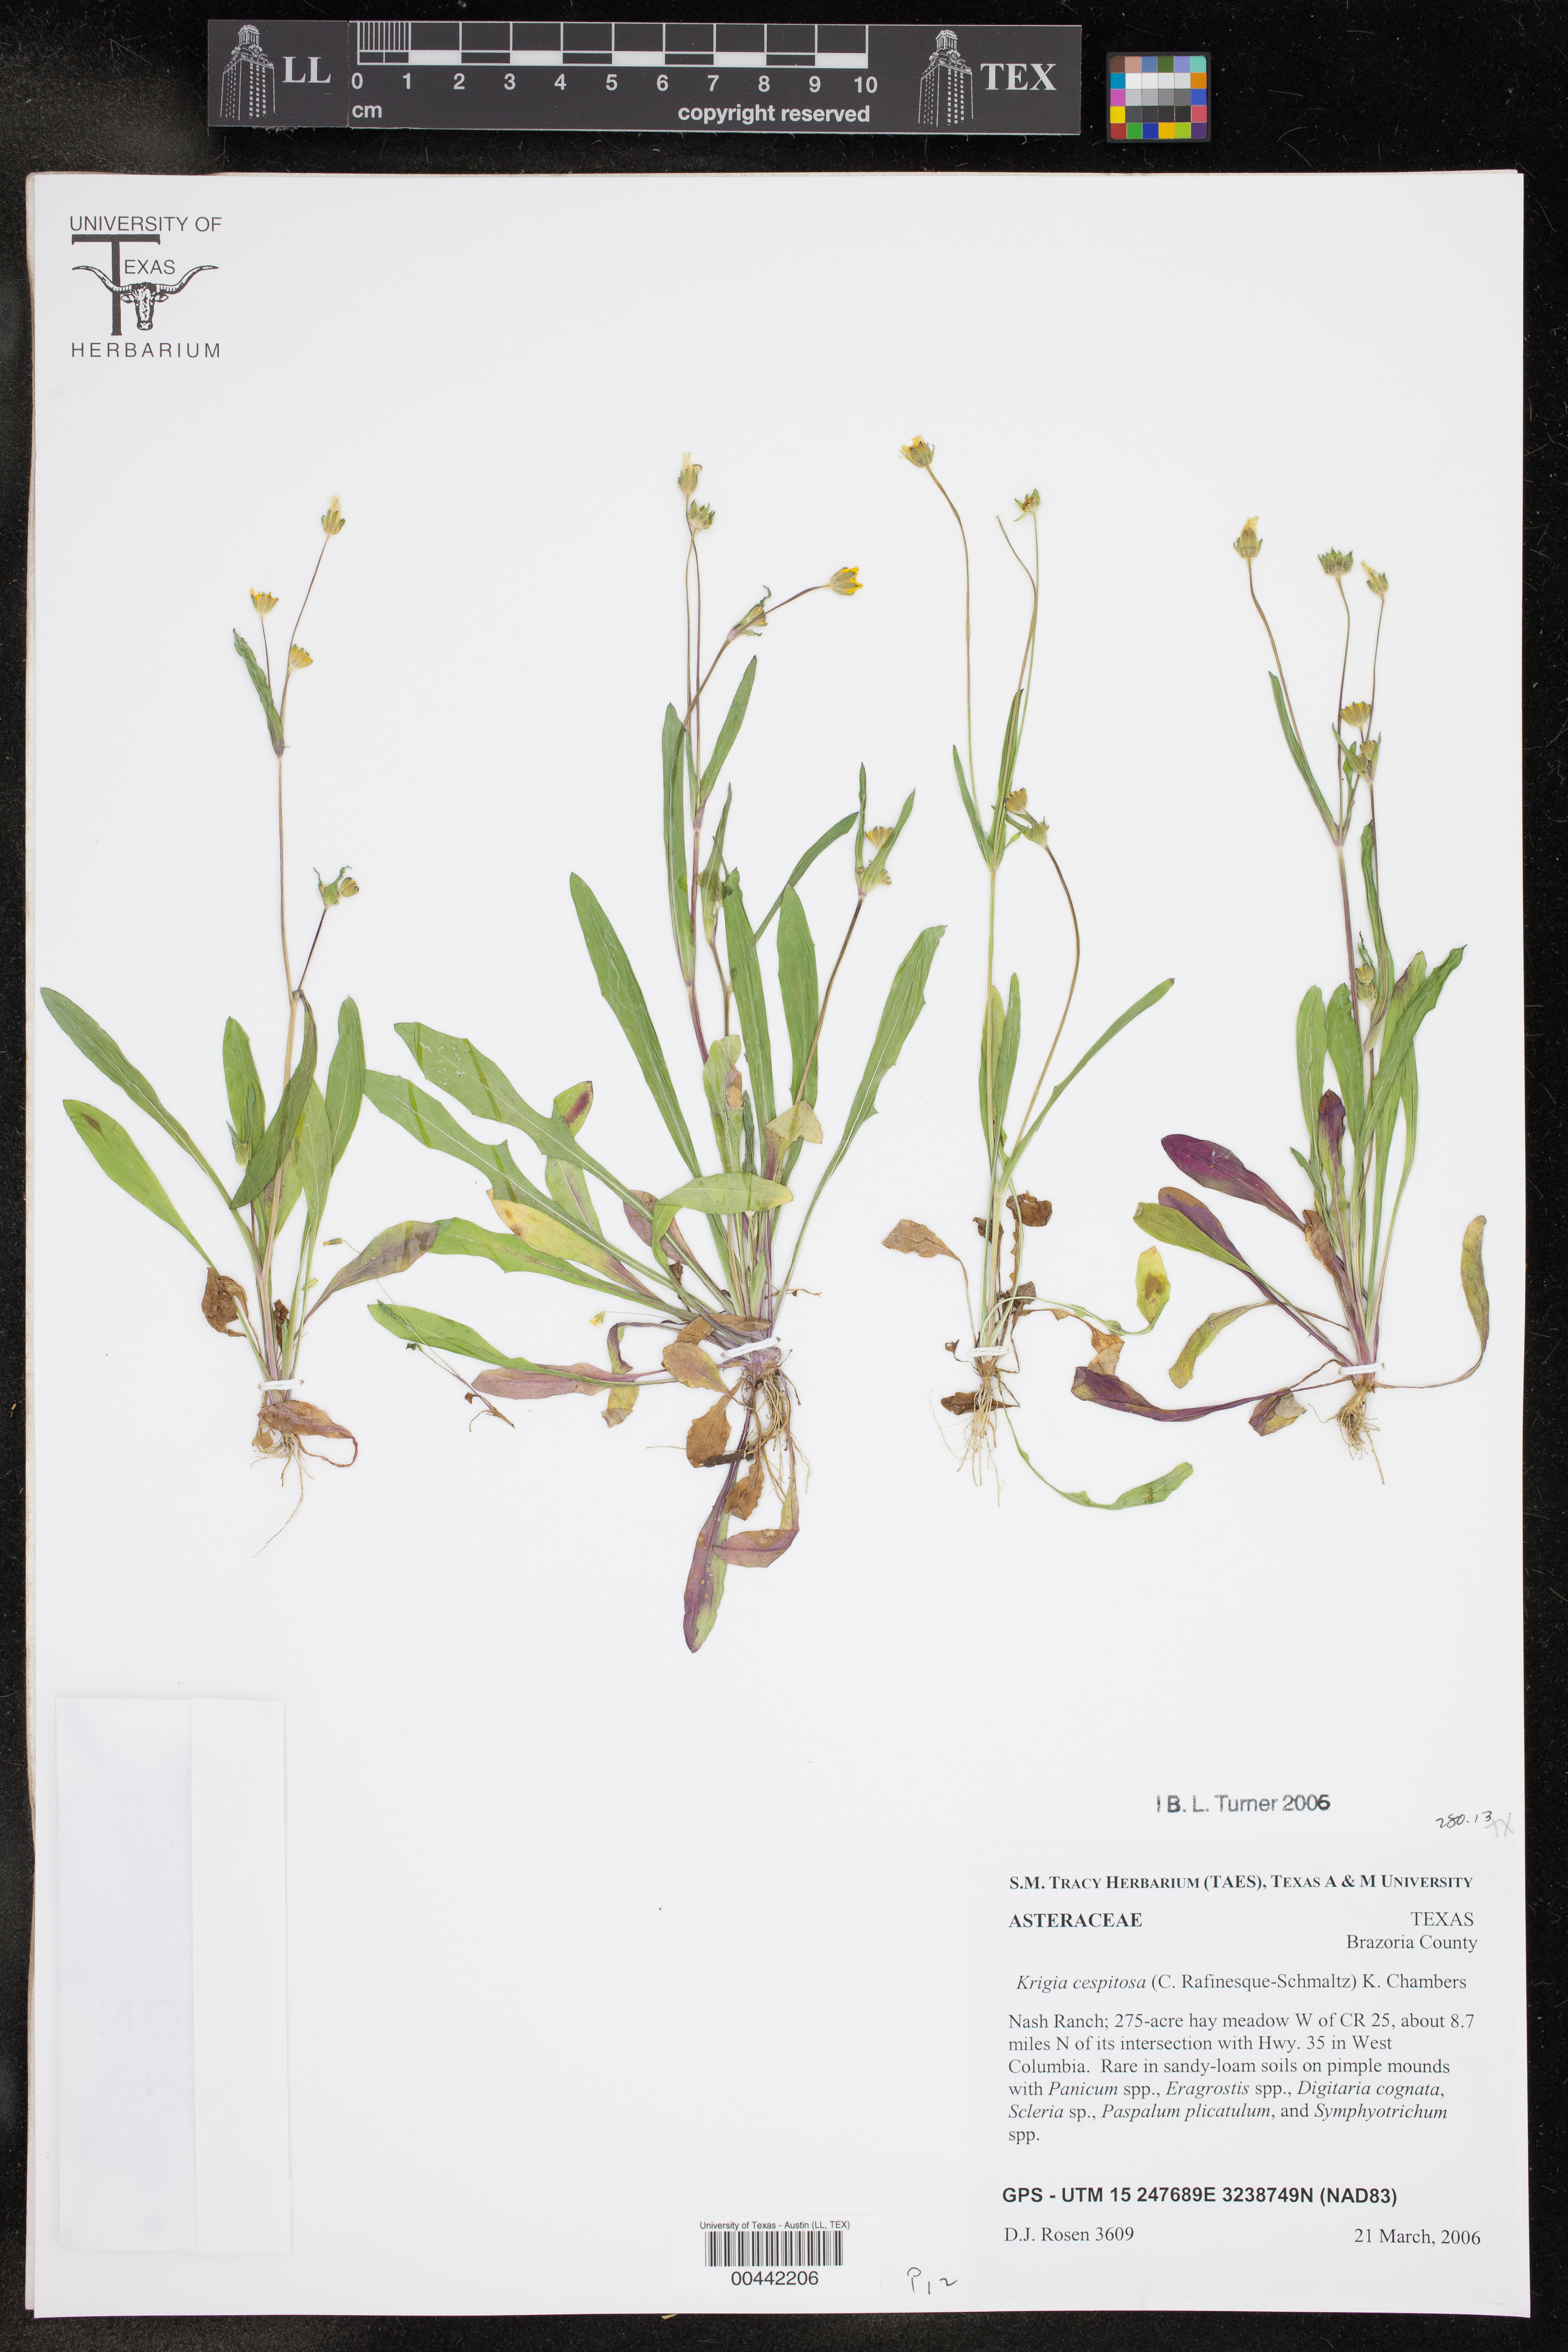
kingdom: Plantae
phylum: Tracheophyta
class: Magnoliopsida
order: Asterales
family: Asteraceae
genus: Krigia
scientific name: Krigia cespitosa
